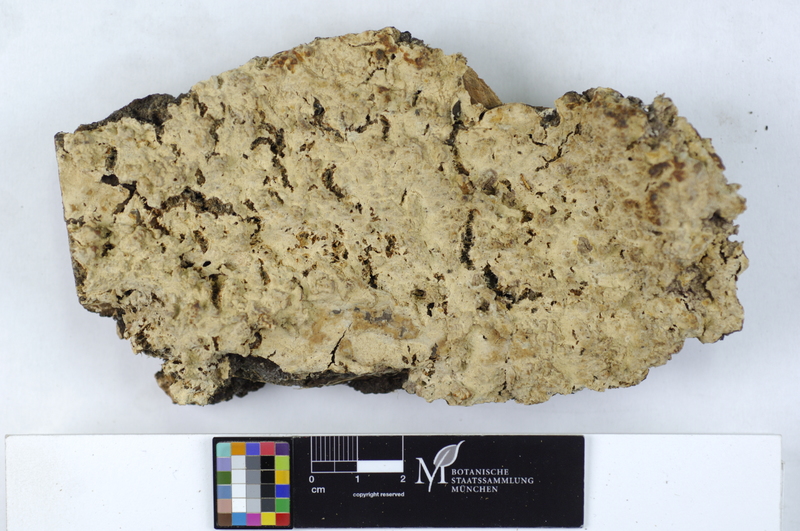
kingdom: Fungi
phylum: Basidiomycota
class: Agaricomycetes
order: Russulales
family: Peniophoraceae
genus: Gloiothele
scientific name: Gloiothele lactescens
